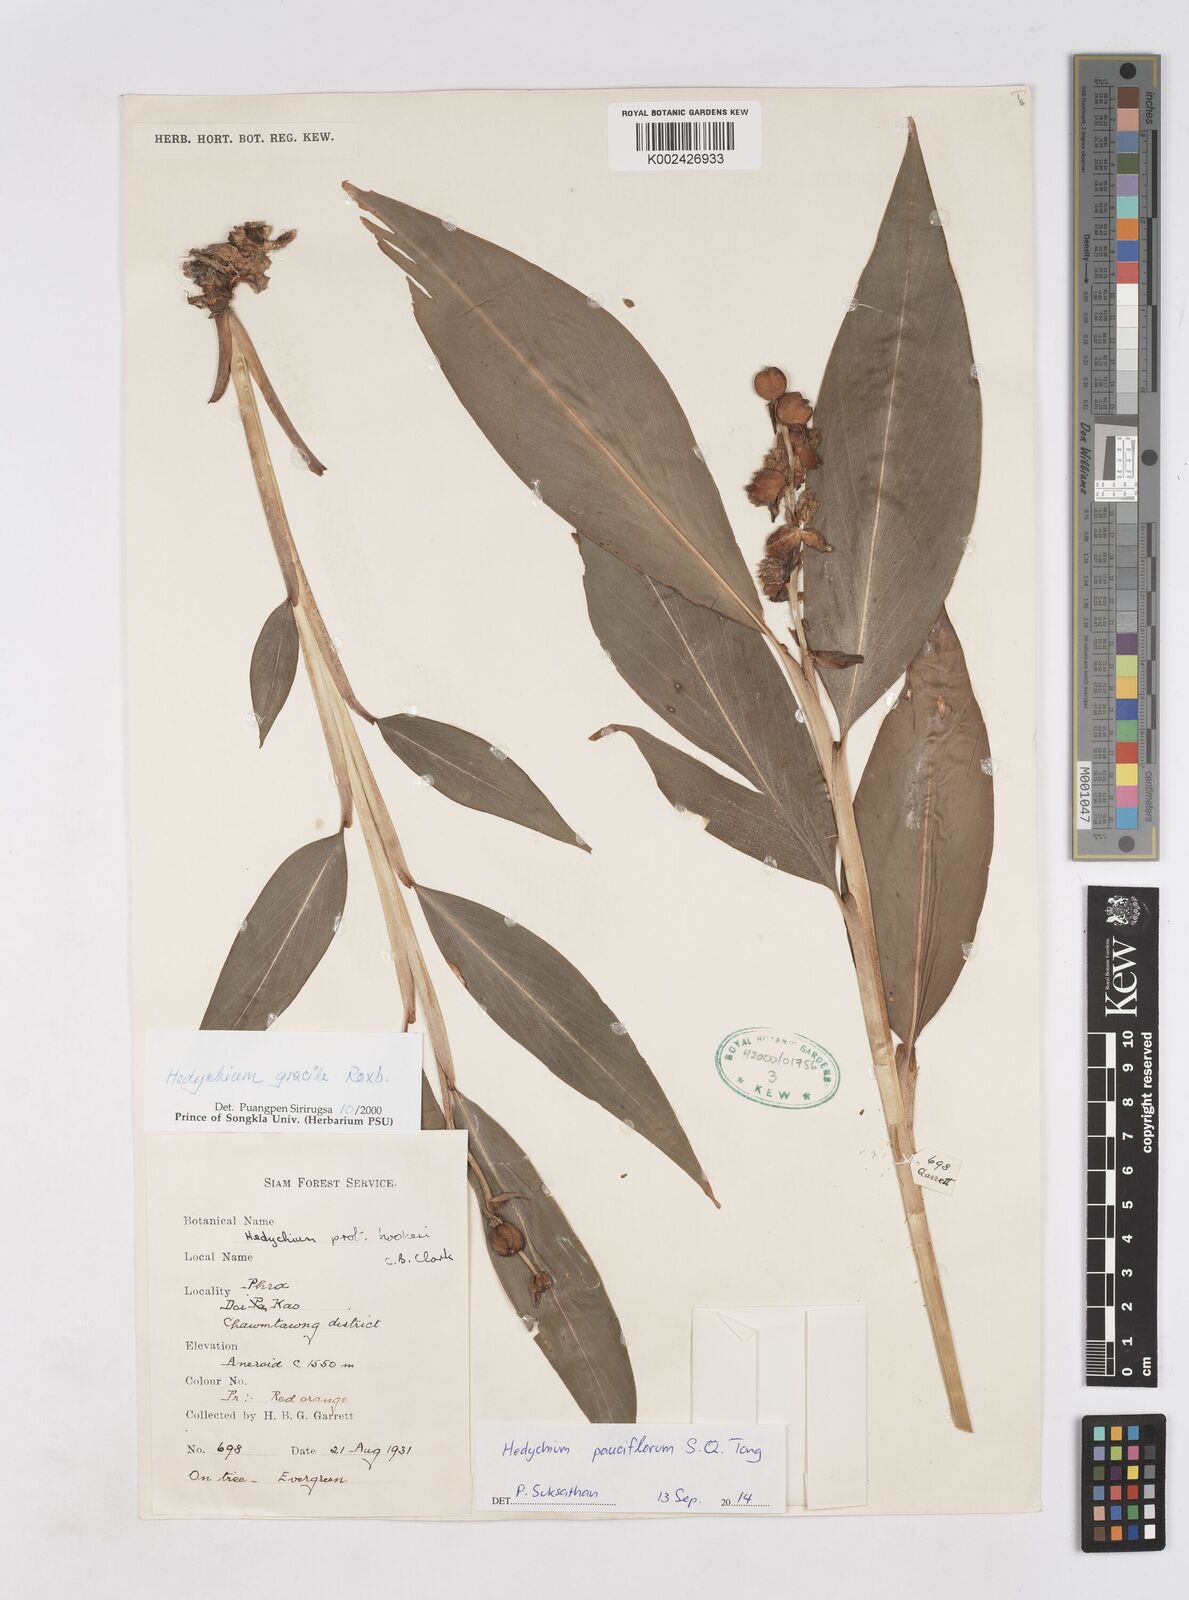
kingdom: Plantae
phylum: Tracheophyta
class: Liliopsida
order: Zingiberales
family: Zingiberaceae
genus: Hedychium
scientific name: Hedychium poilanei
